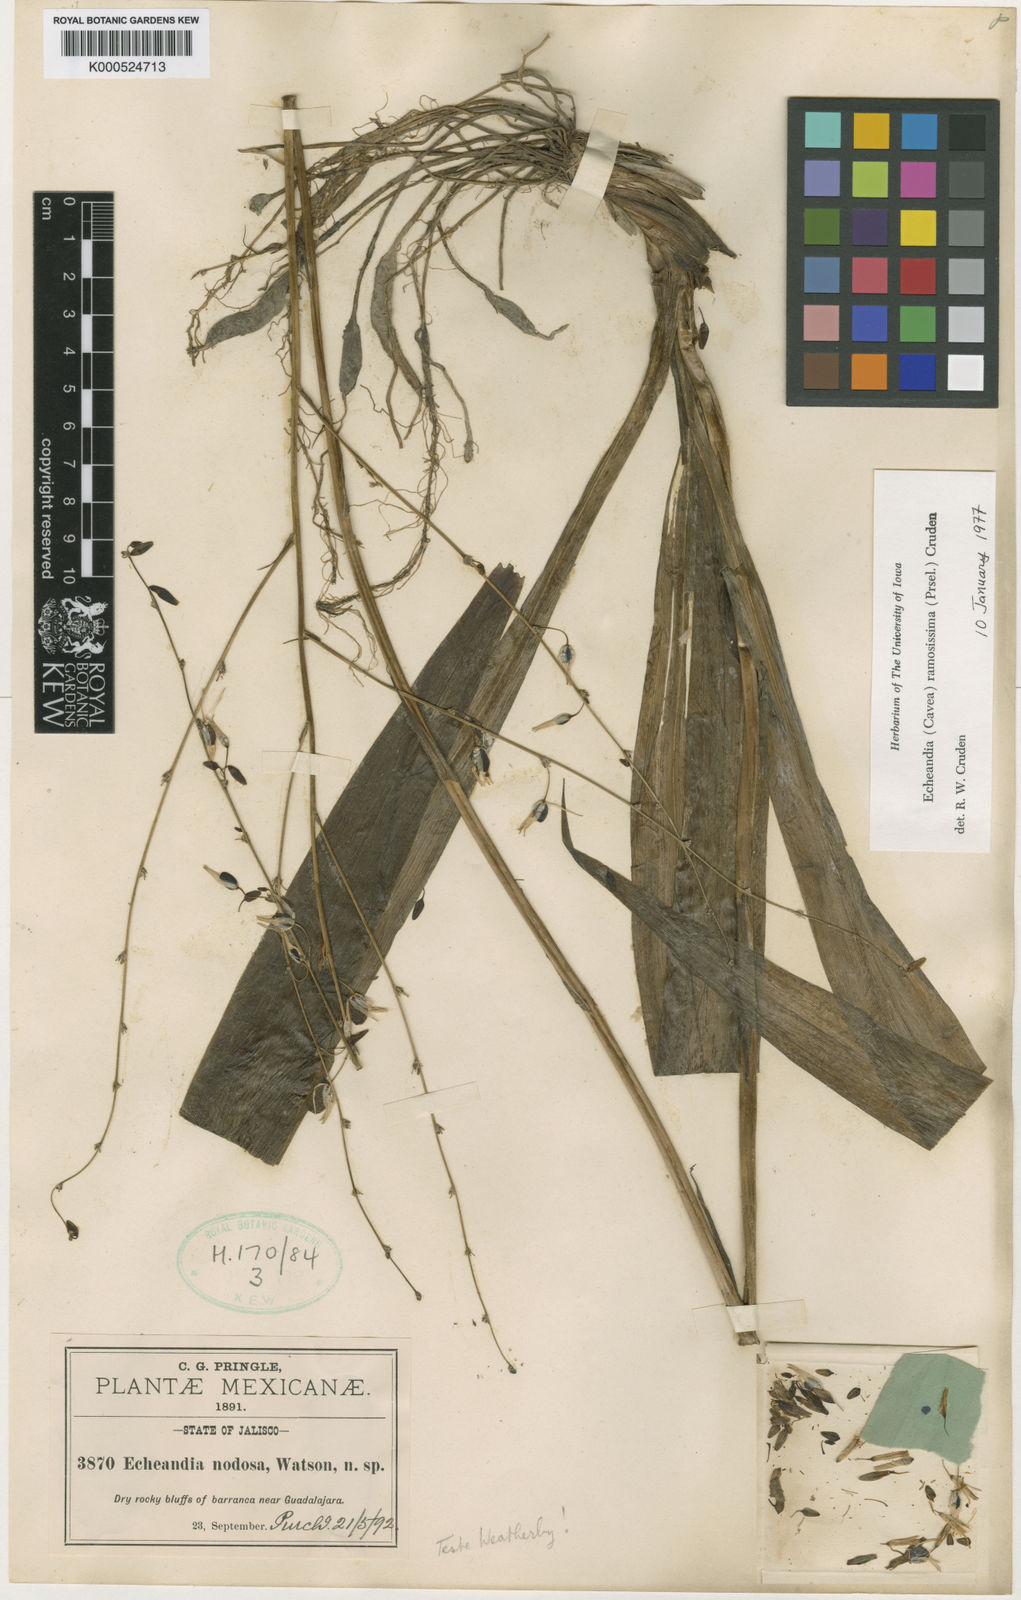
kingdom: Plantae
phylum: Tracheophyta
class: Liliopsida
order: Asparagales
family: Asparagaceae
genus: Echeandia
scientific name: Echeandia ramosissima
